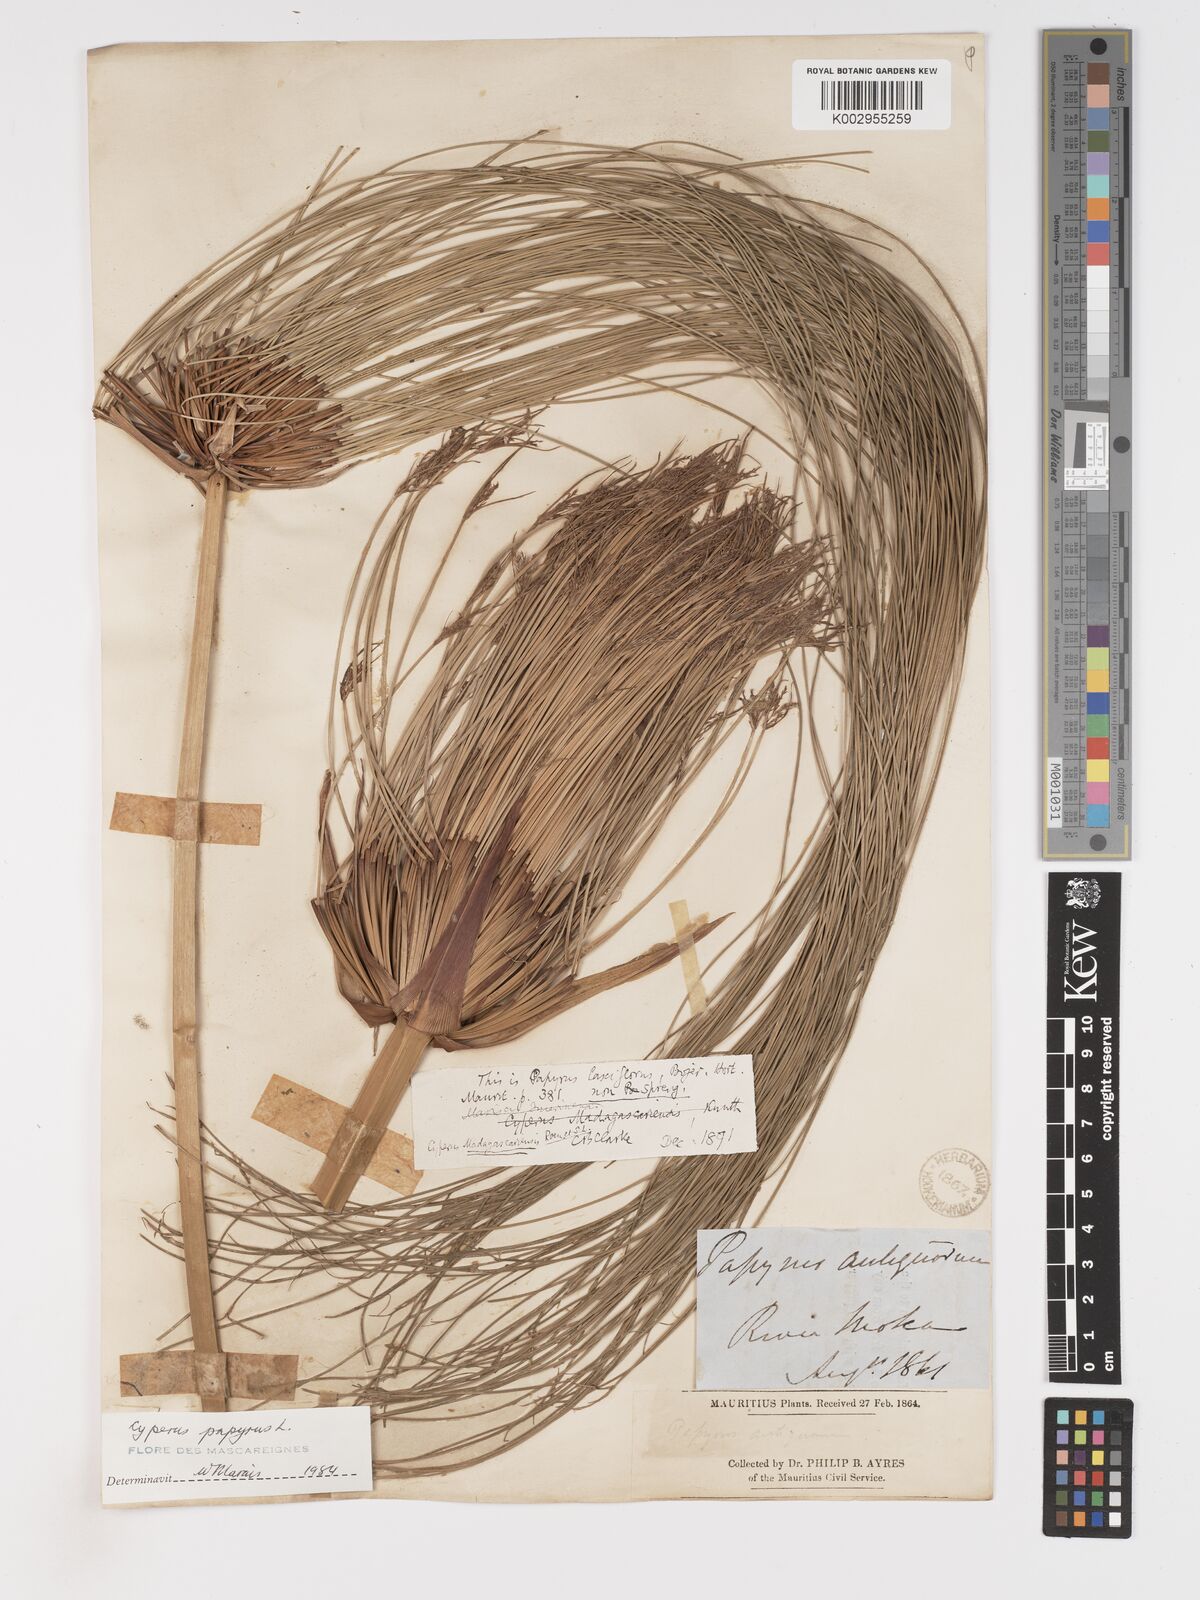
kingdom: Plantae
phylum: Tracheophyta
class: Liliopsida
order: Poales
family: Cyperaceae
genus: Cyperus
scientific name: Cyperus papyrus
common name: Papyrus
